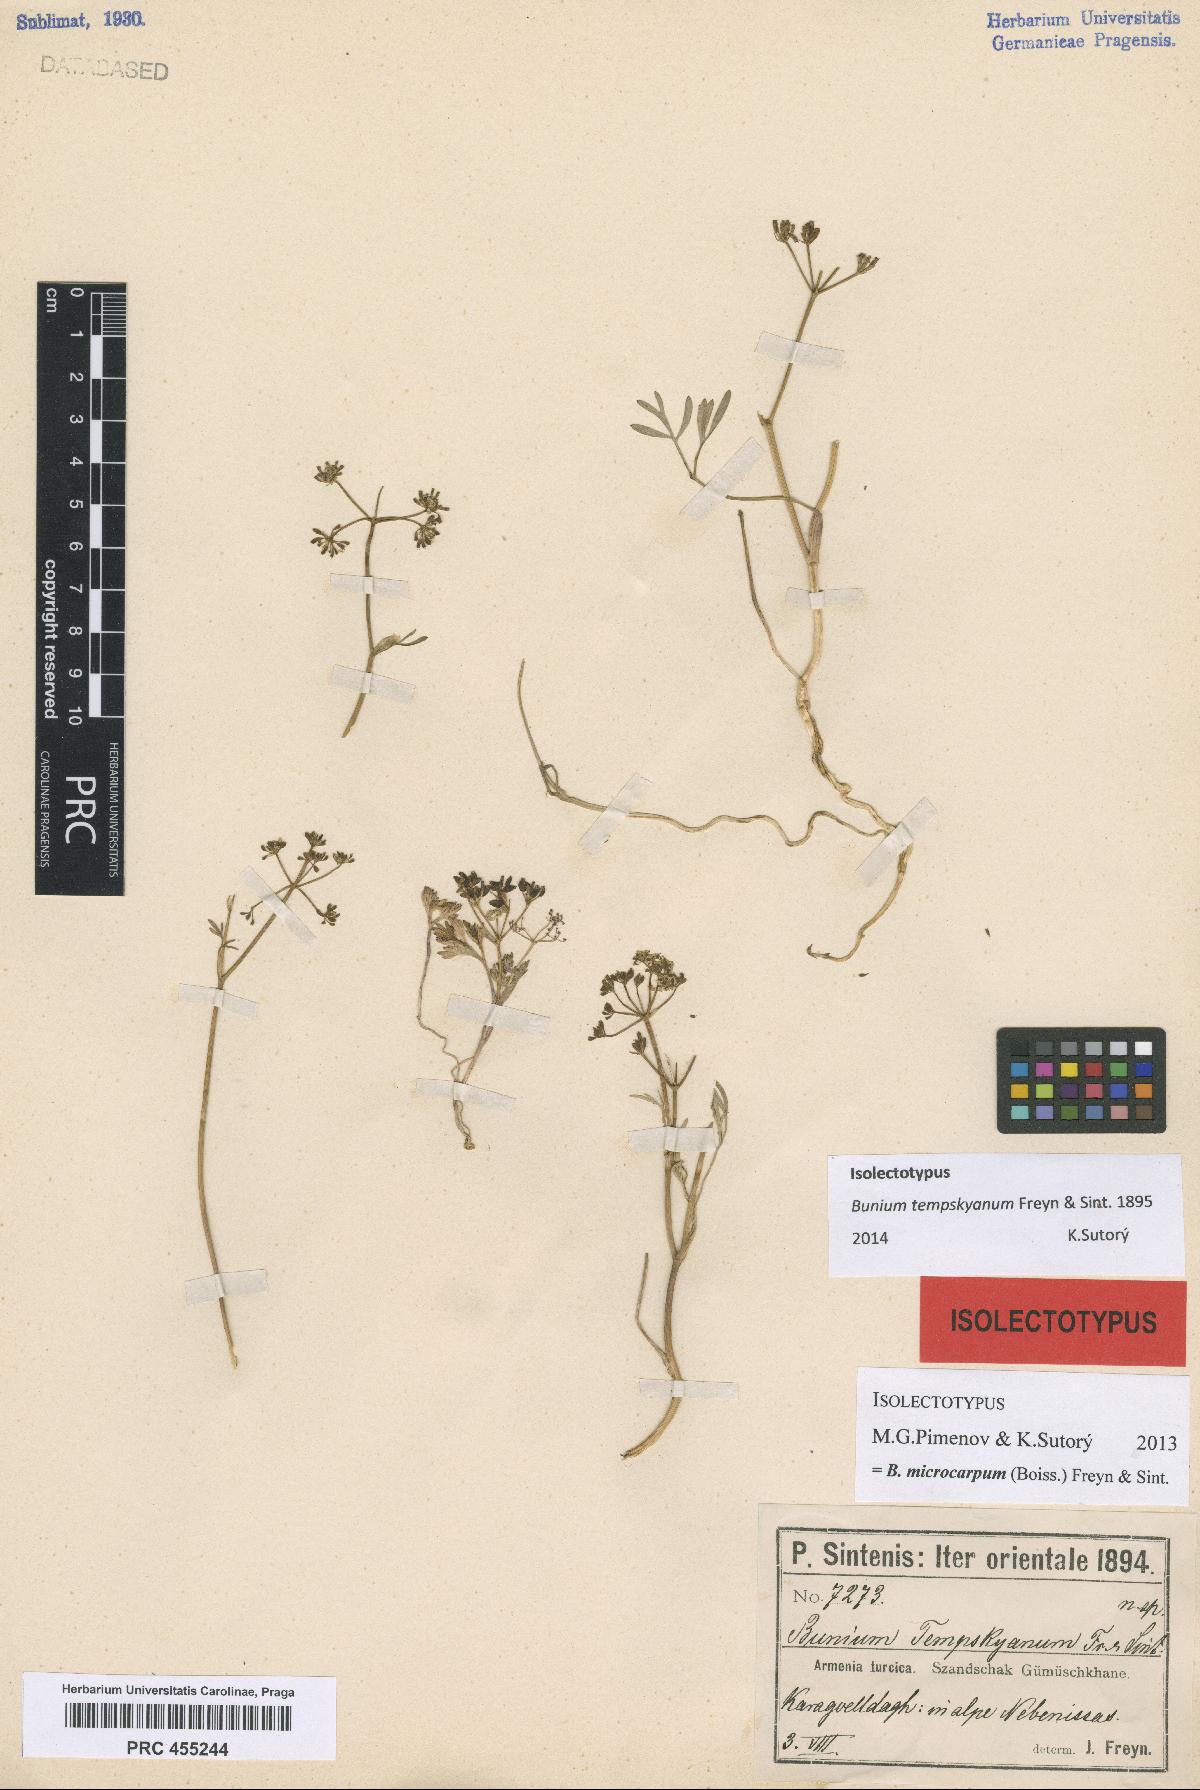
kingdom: Plantae
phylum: Tracheophyta
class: Magnoliopsida
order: Apiales
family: Apiaceae
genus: Bunium
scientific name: Bunium bourgaei
